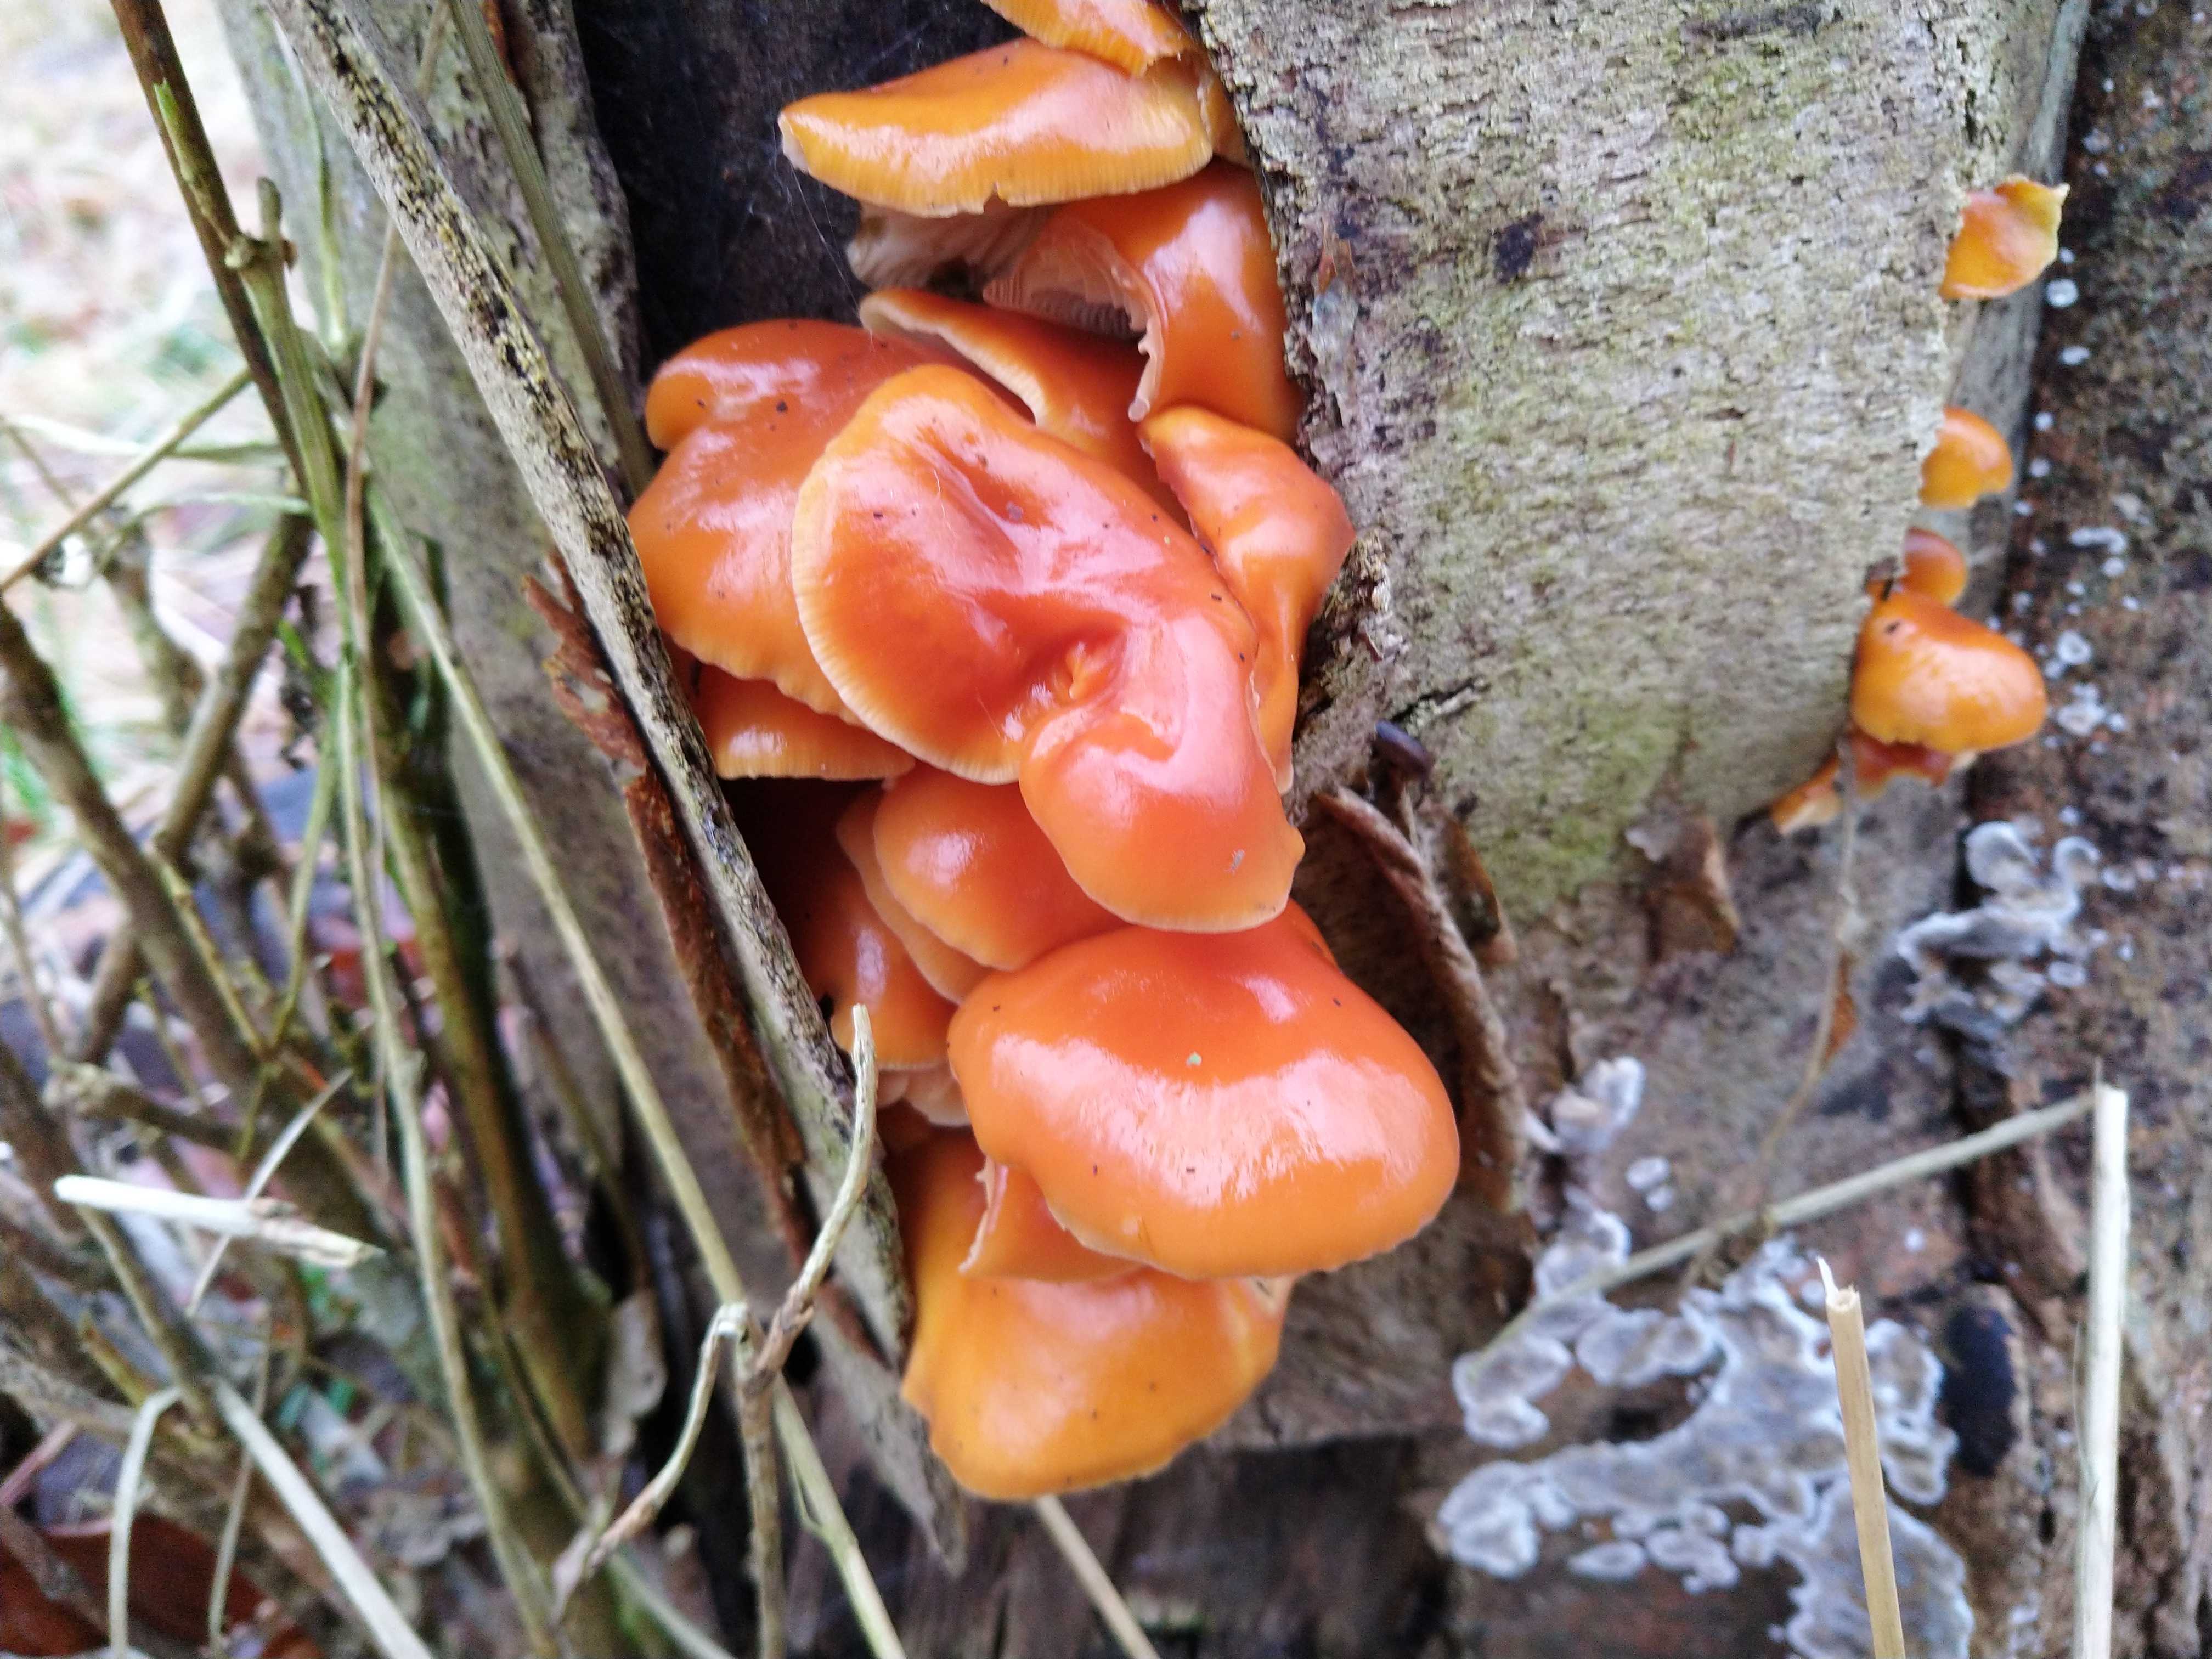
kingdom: Fungi
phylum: Basidiomycota
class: Agaricomycetes
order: Agaricales
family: Physalacriaceae
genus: Flammulina
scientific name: Flammulina velutipes
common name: gul fløjlsfod
